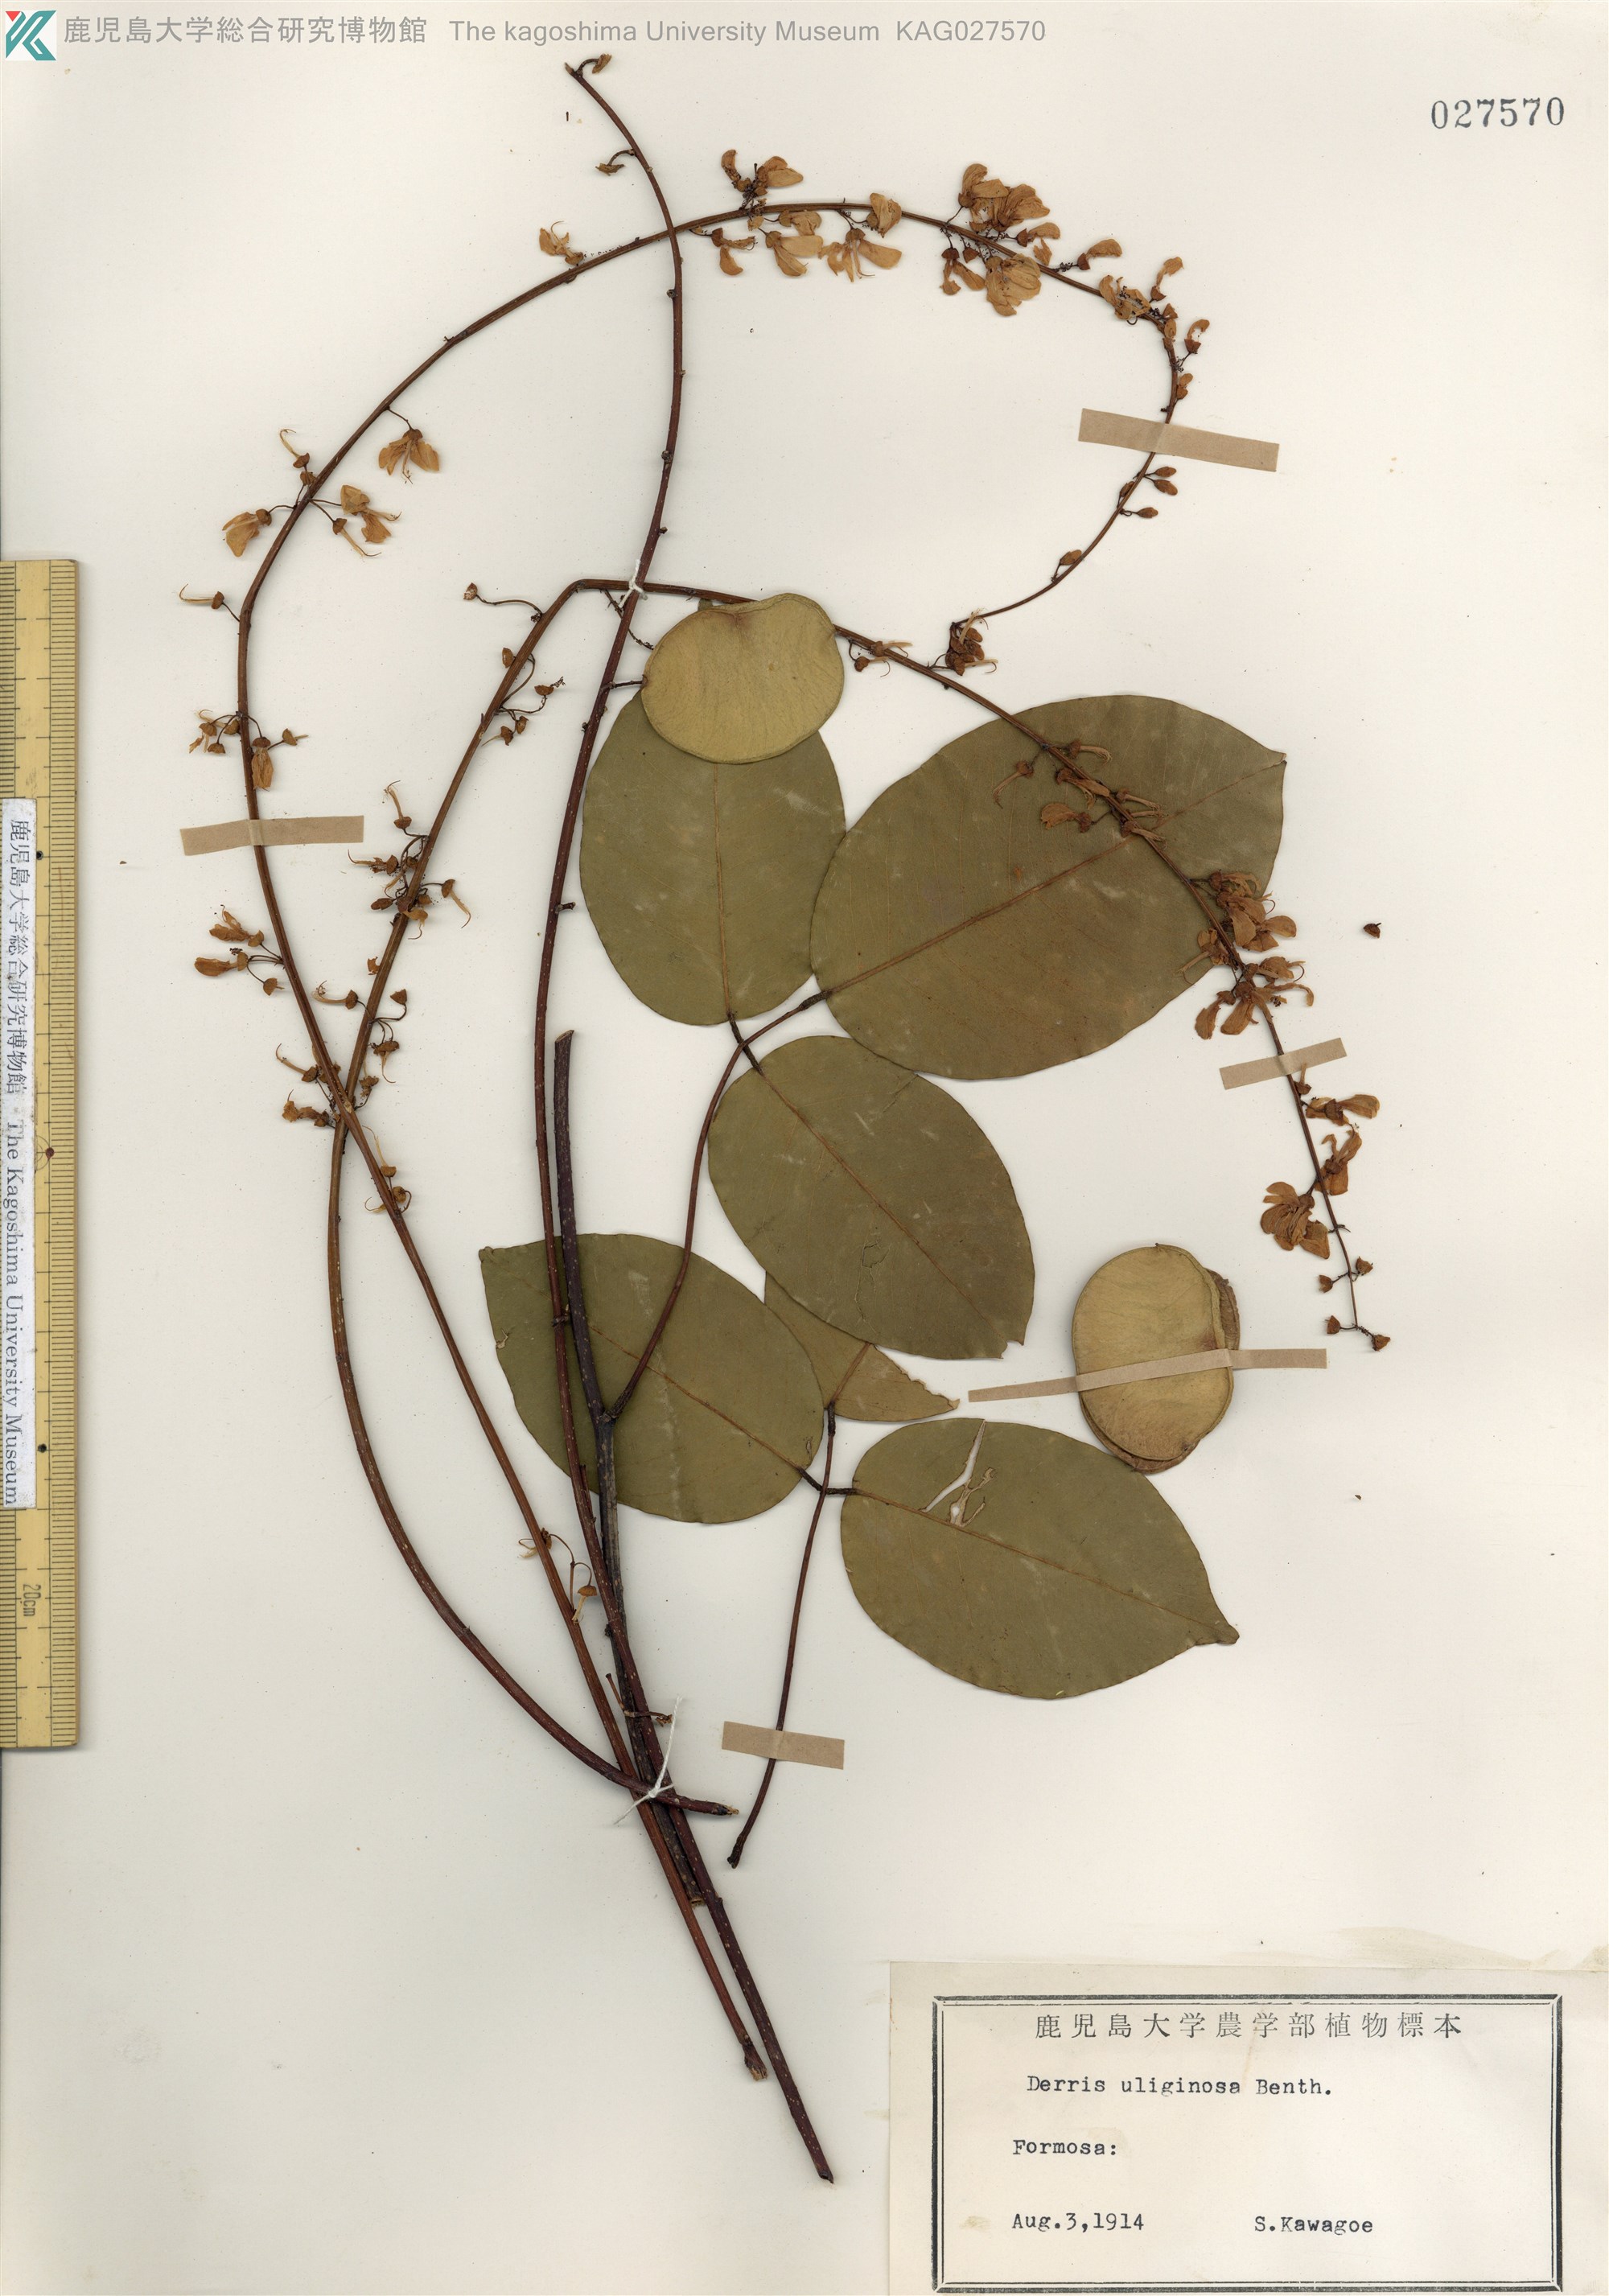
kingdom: Plantae
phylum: Tracheophyta
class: Magnoliopsida
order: Fabales
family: Fabaceae
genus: Derris
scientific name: Derris trifoliata
